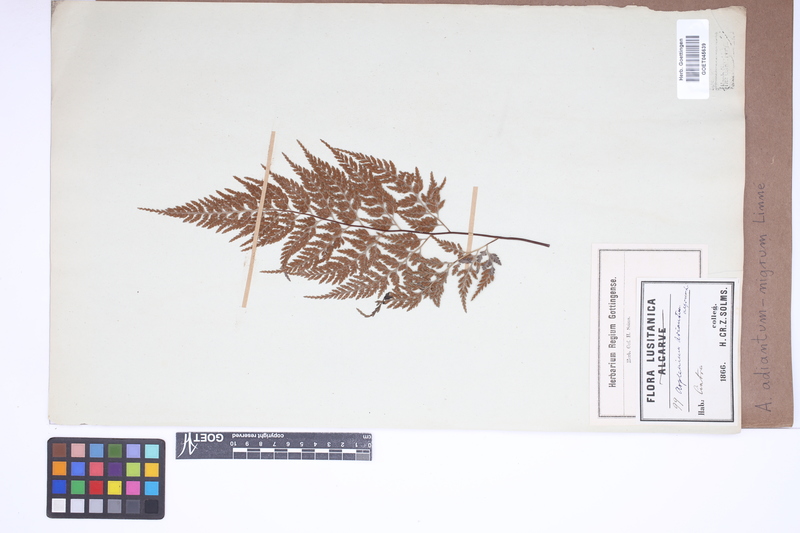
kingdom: Plantae
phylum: Tracheophyta
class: Polypodiopsida
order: Polypodiales
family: Aspleniaceae
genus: Asplenium
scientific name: Asplenium adiantum-nigrum
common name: Black spleenwort
